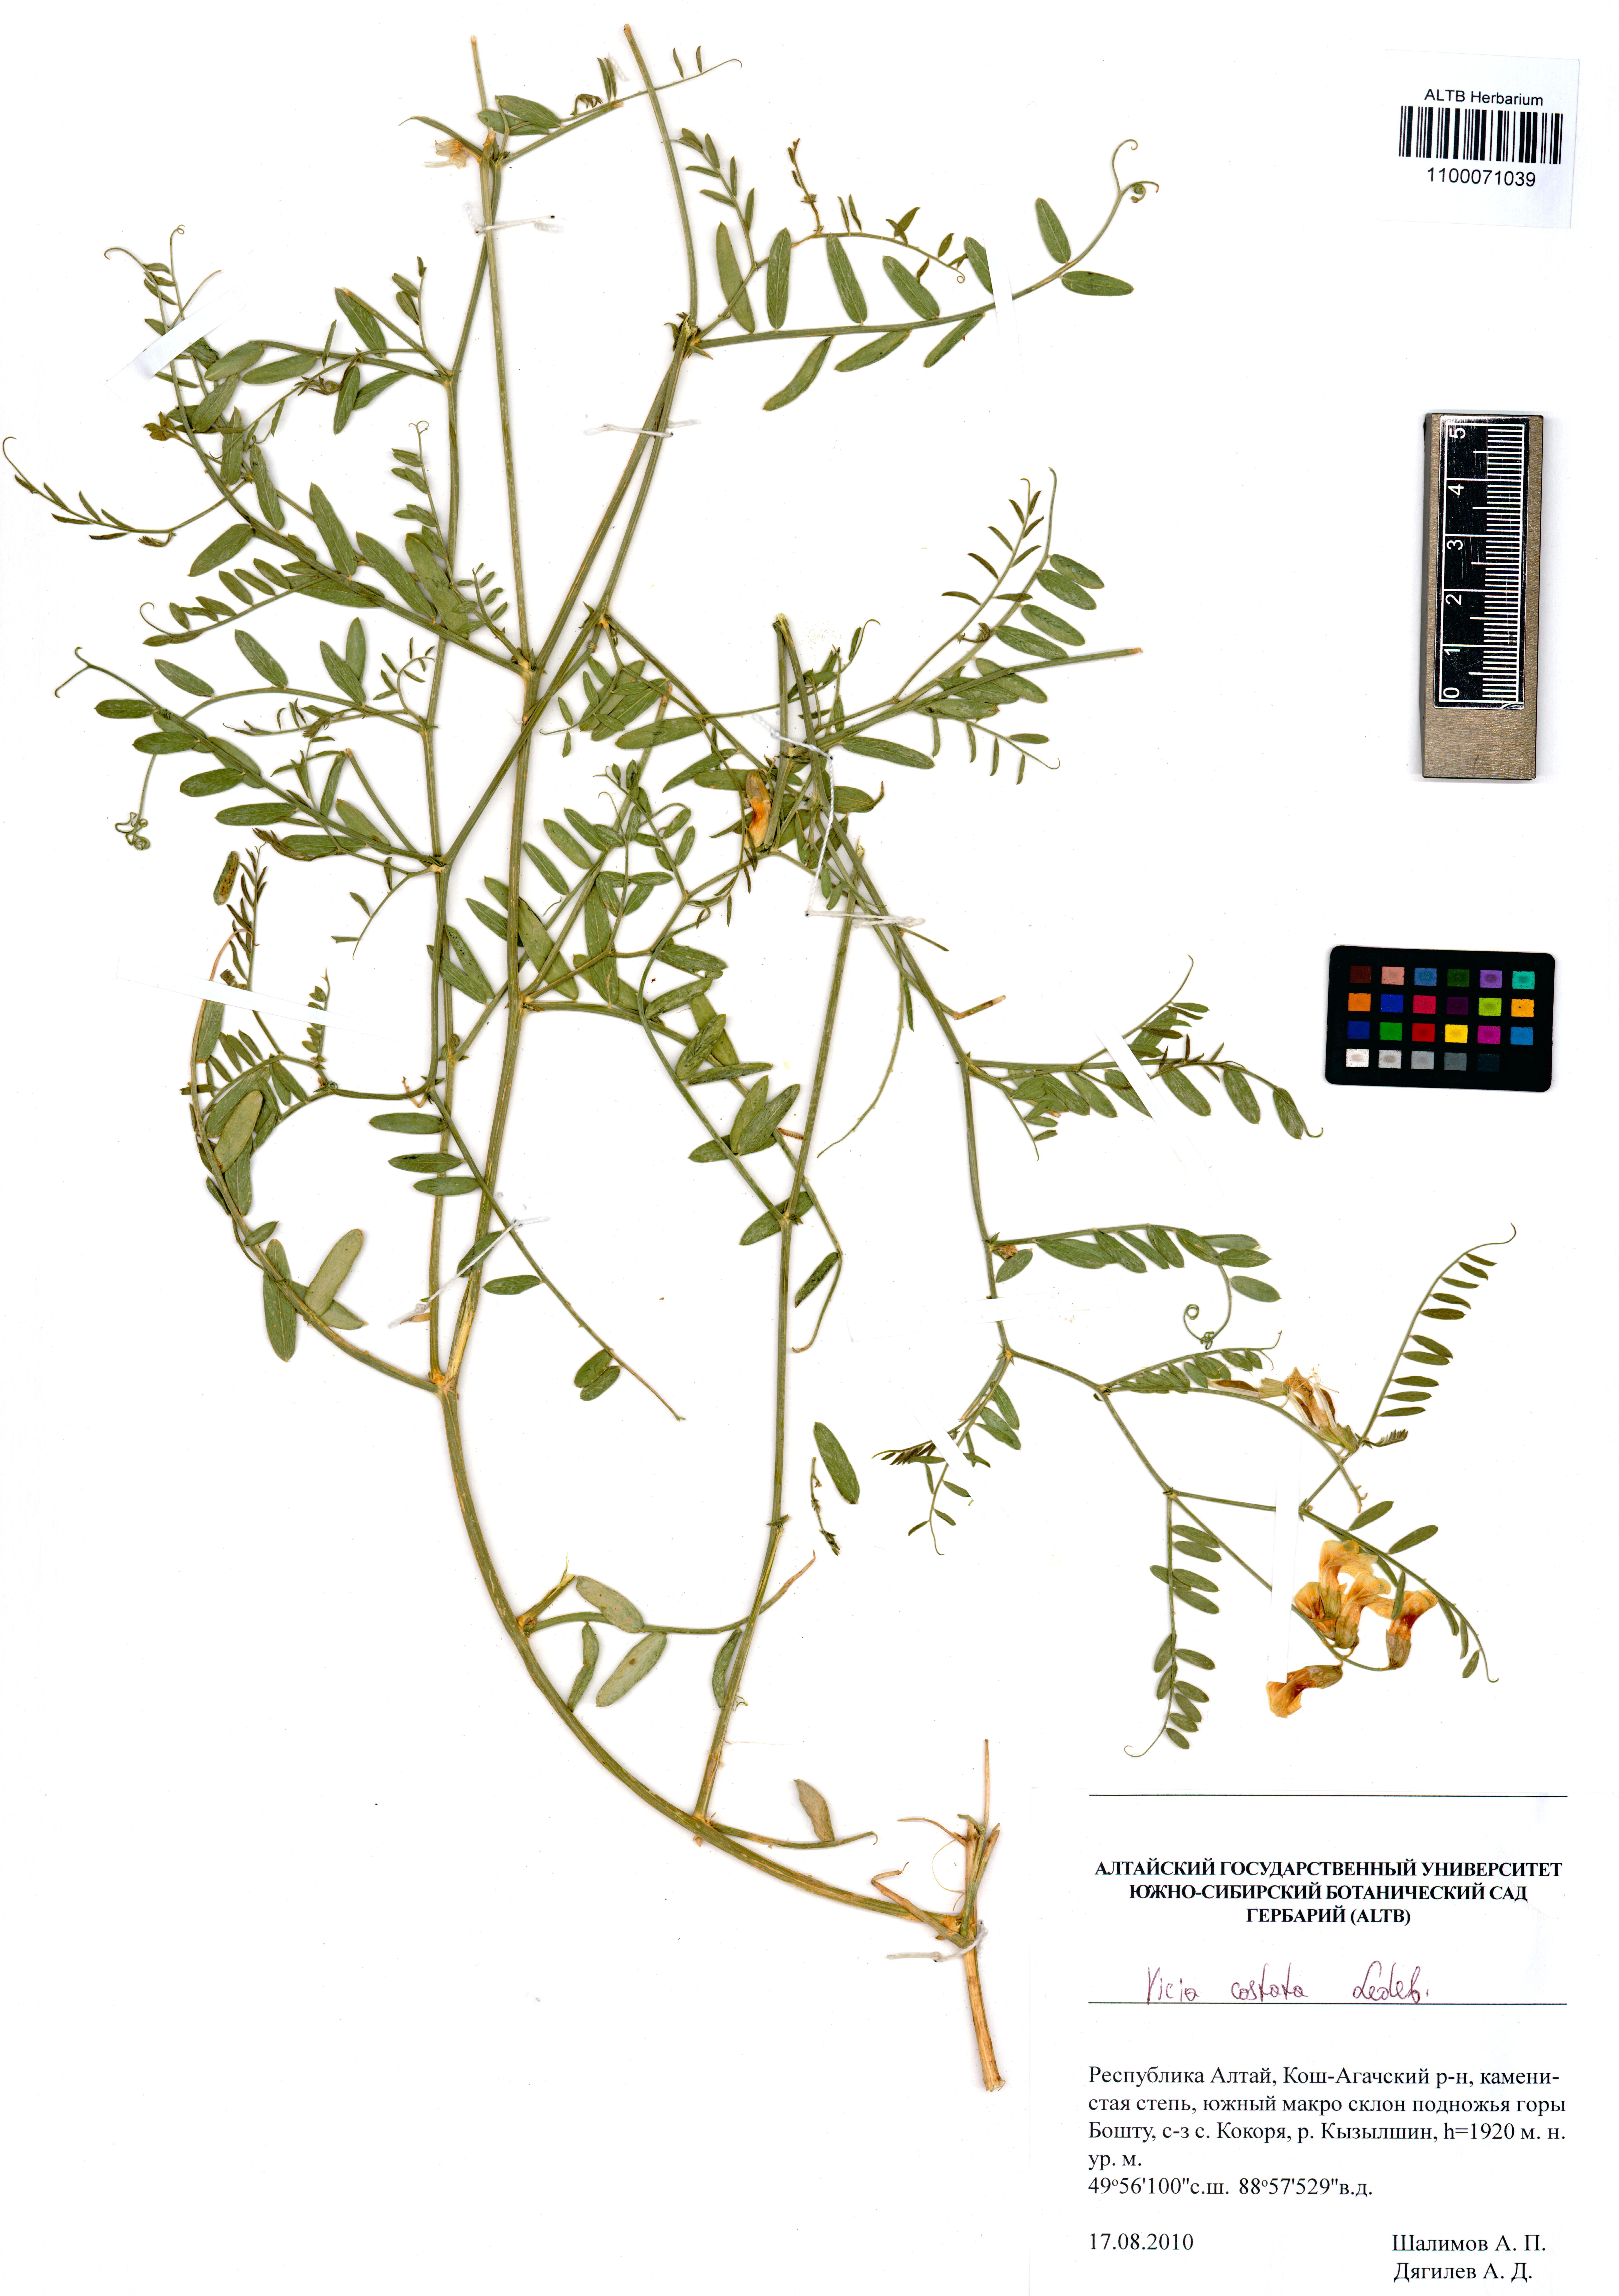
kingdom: Plantae
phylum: Tracheophyta
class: Magnoliopsida
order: Fabales
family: Fabaceae
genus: Vicia
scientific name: Vicia costata
